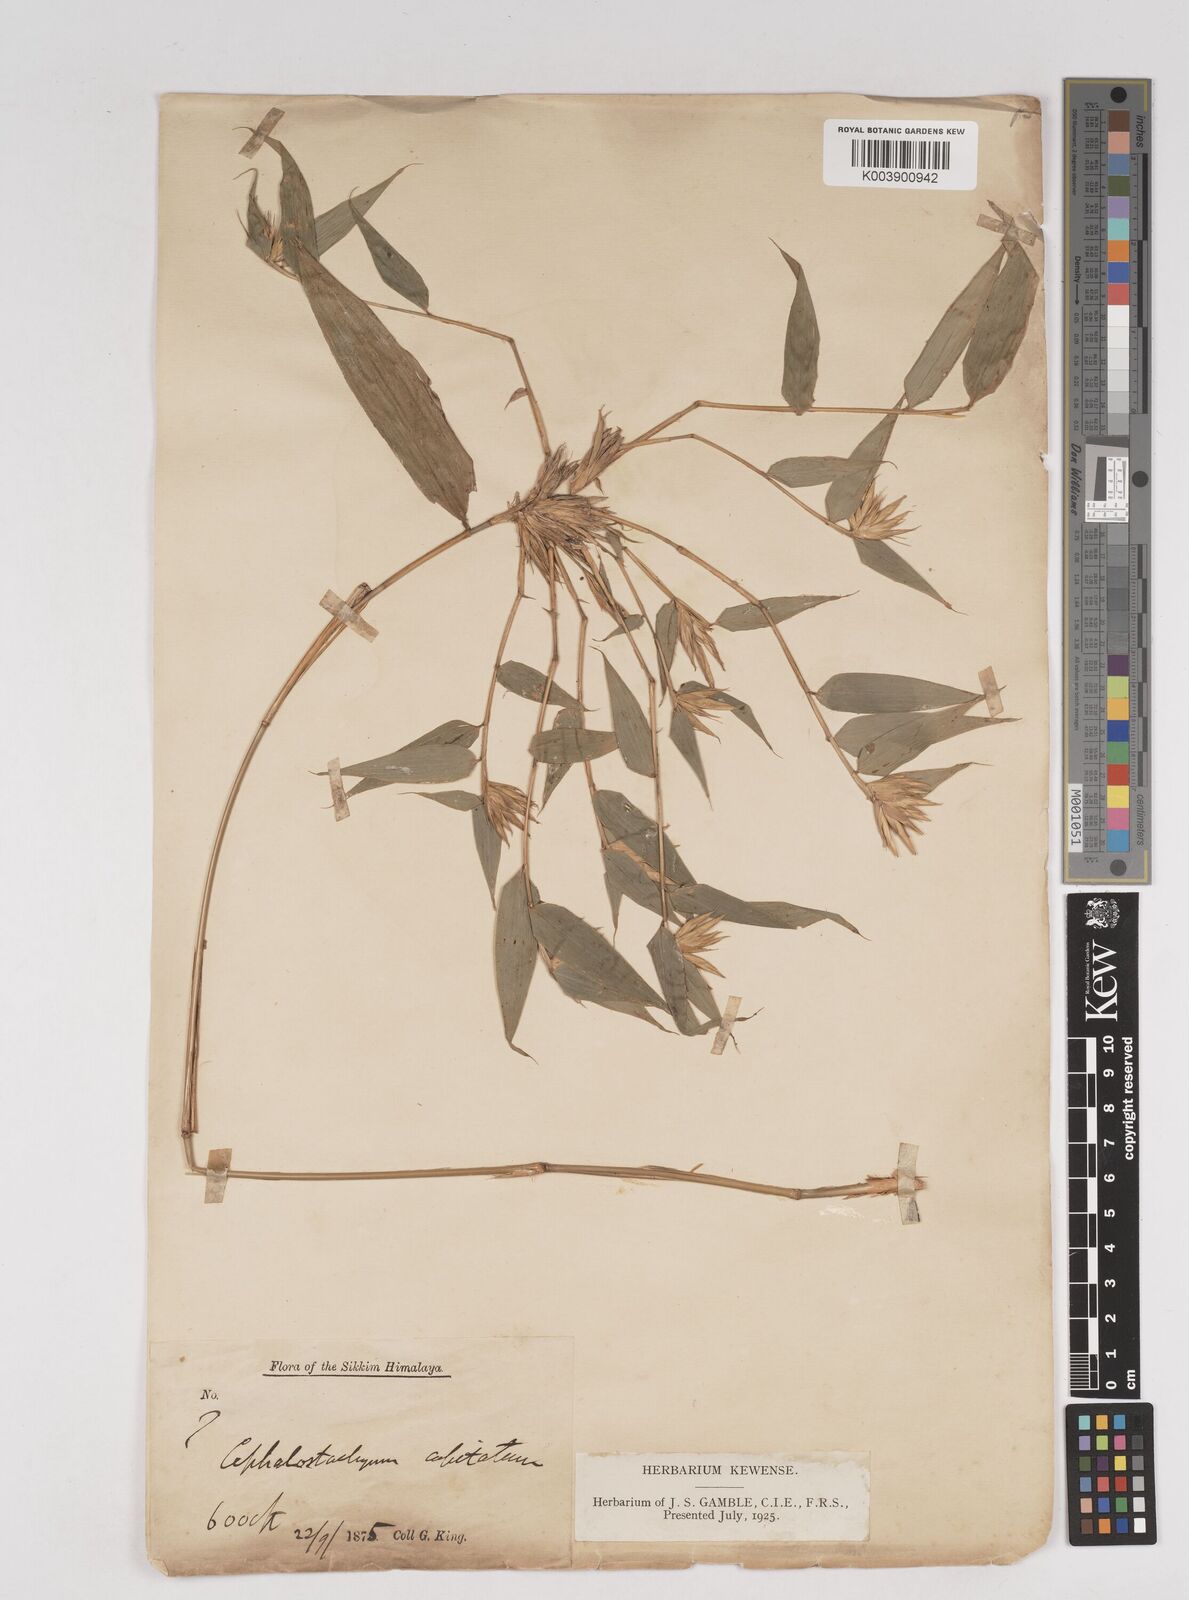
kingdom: Plantae
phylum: Tracheophyta
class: Liliopsida
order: Poales
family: Poaceae
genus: Cephalostachyum
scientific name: Cephalostachyum
